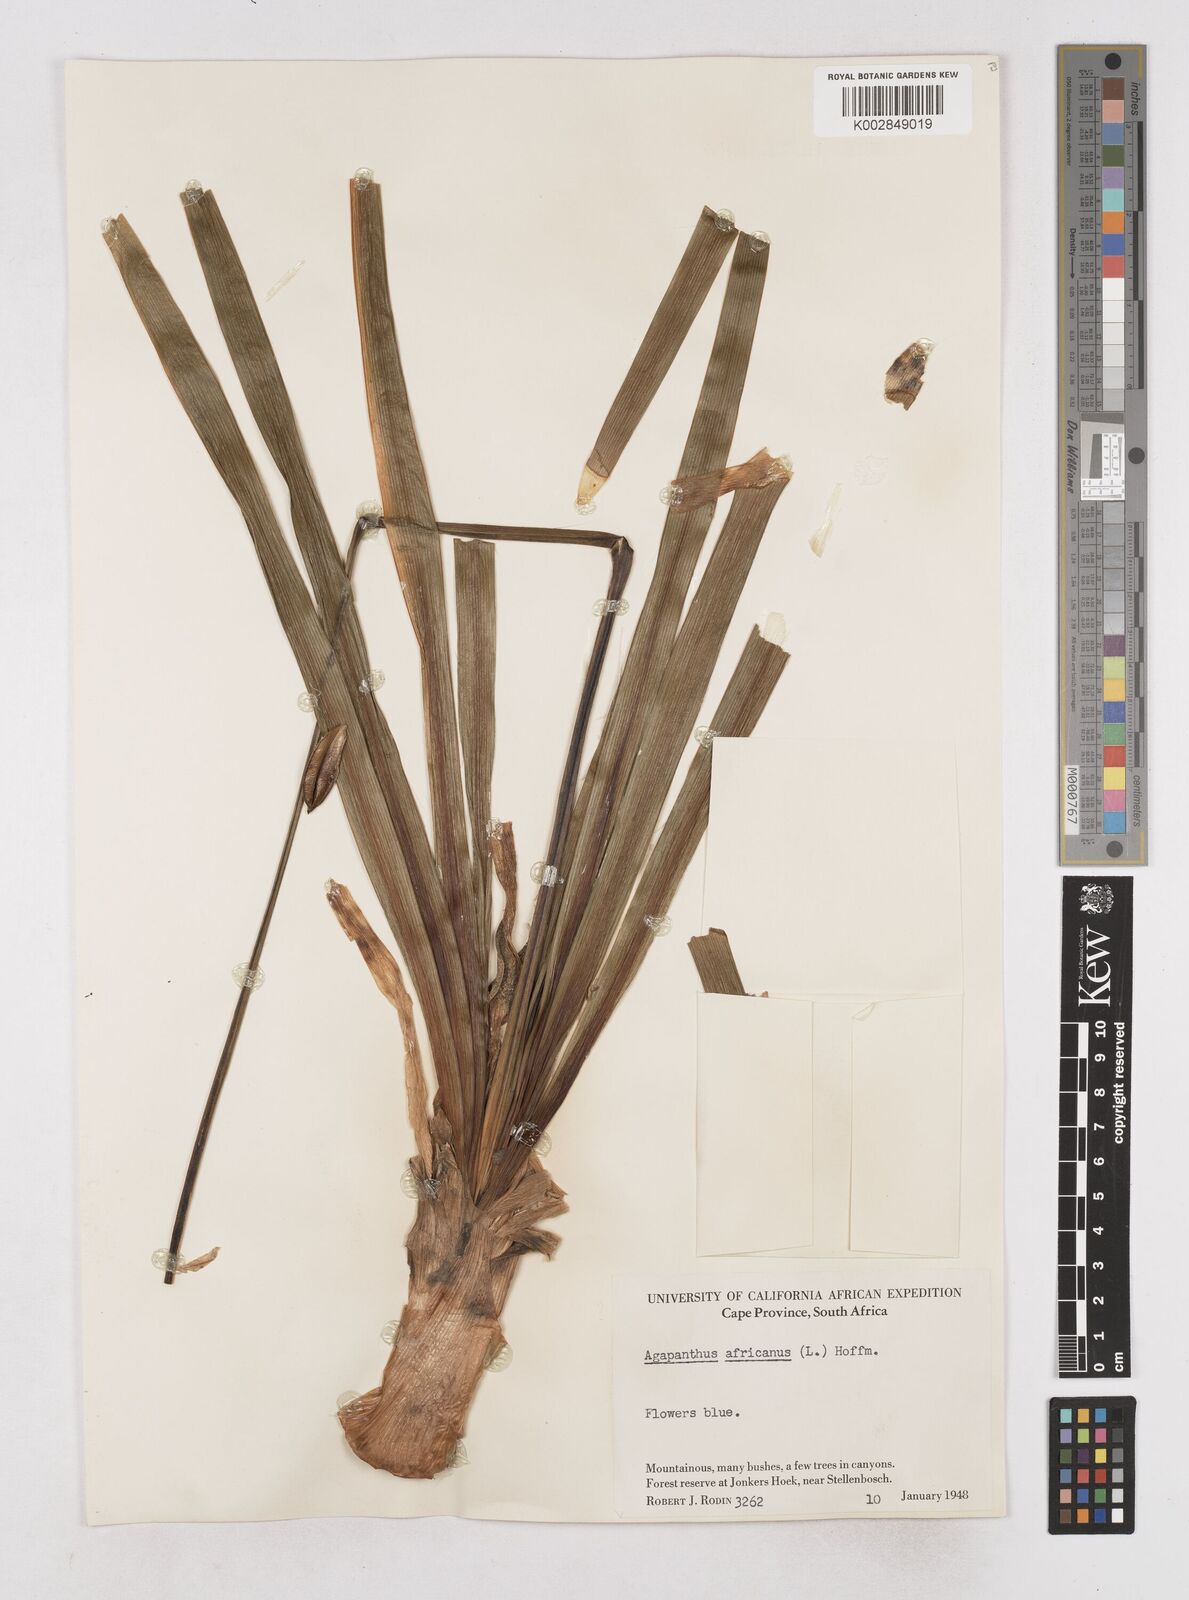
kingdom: Plantae
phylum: Tracheophyta
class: Liliopsida
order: Asparagales
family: Amaryllidaceae
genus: Agapanthus
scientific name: Agapanthus africanus
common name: Lily-of-the-nile
